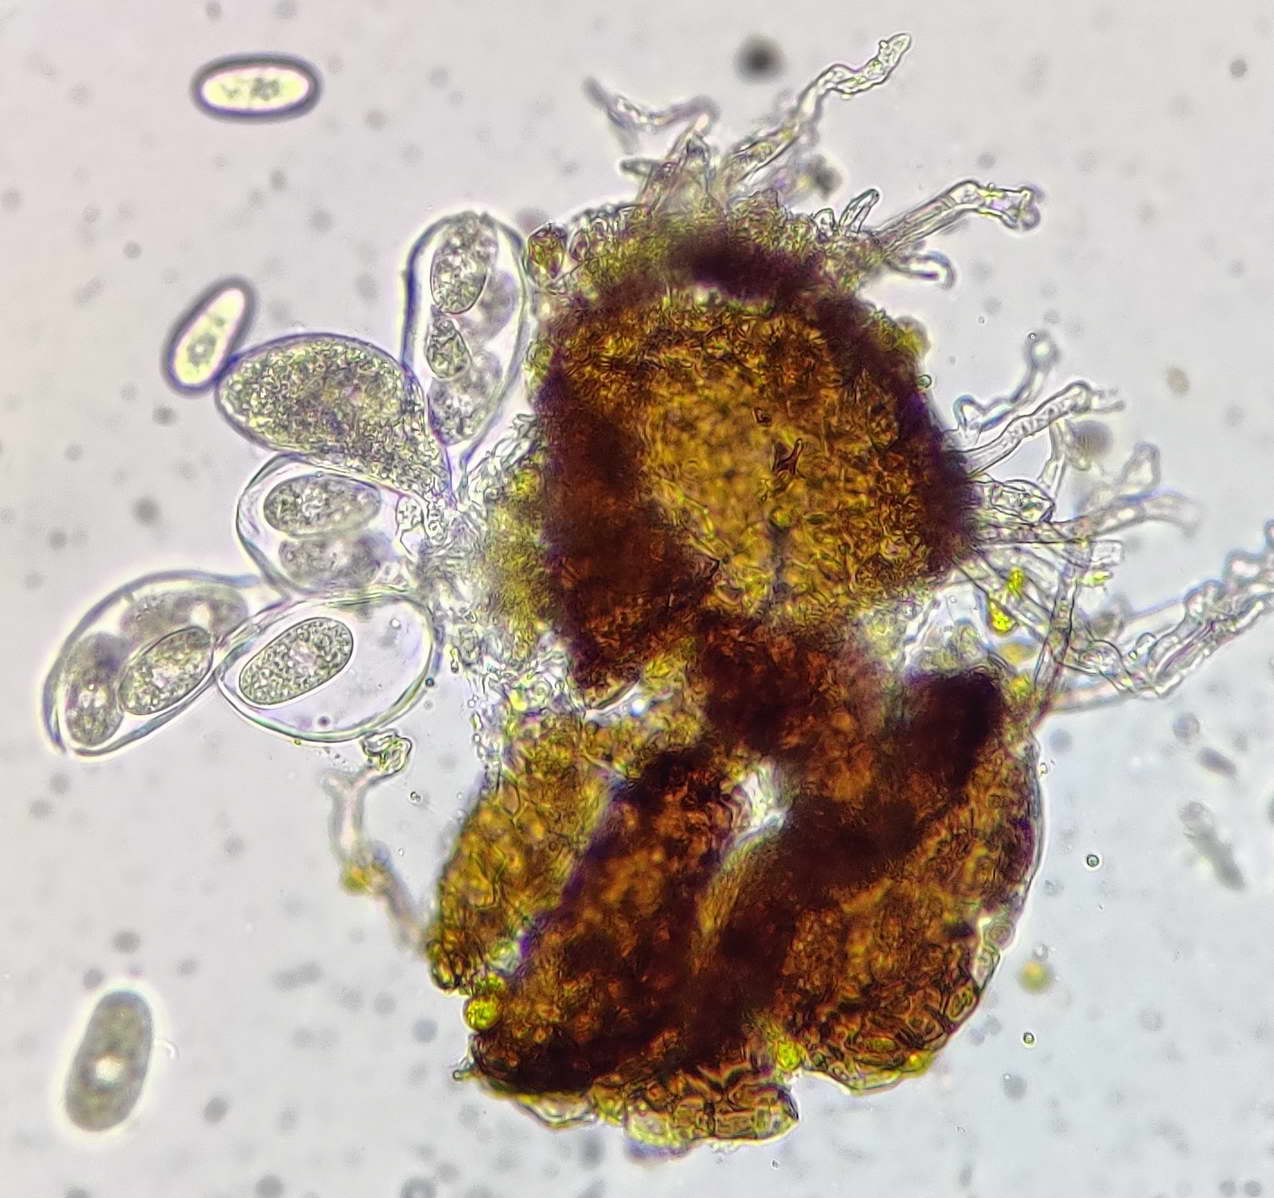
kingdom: Fungi
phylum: Ascomycota
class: Leotiomycetes
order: Helotiales
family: Erysiphaceae
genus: Erysiphe
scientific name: Erysiphe heraclei
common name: skærmplante-meldug
